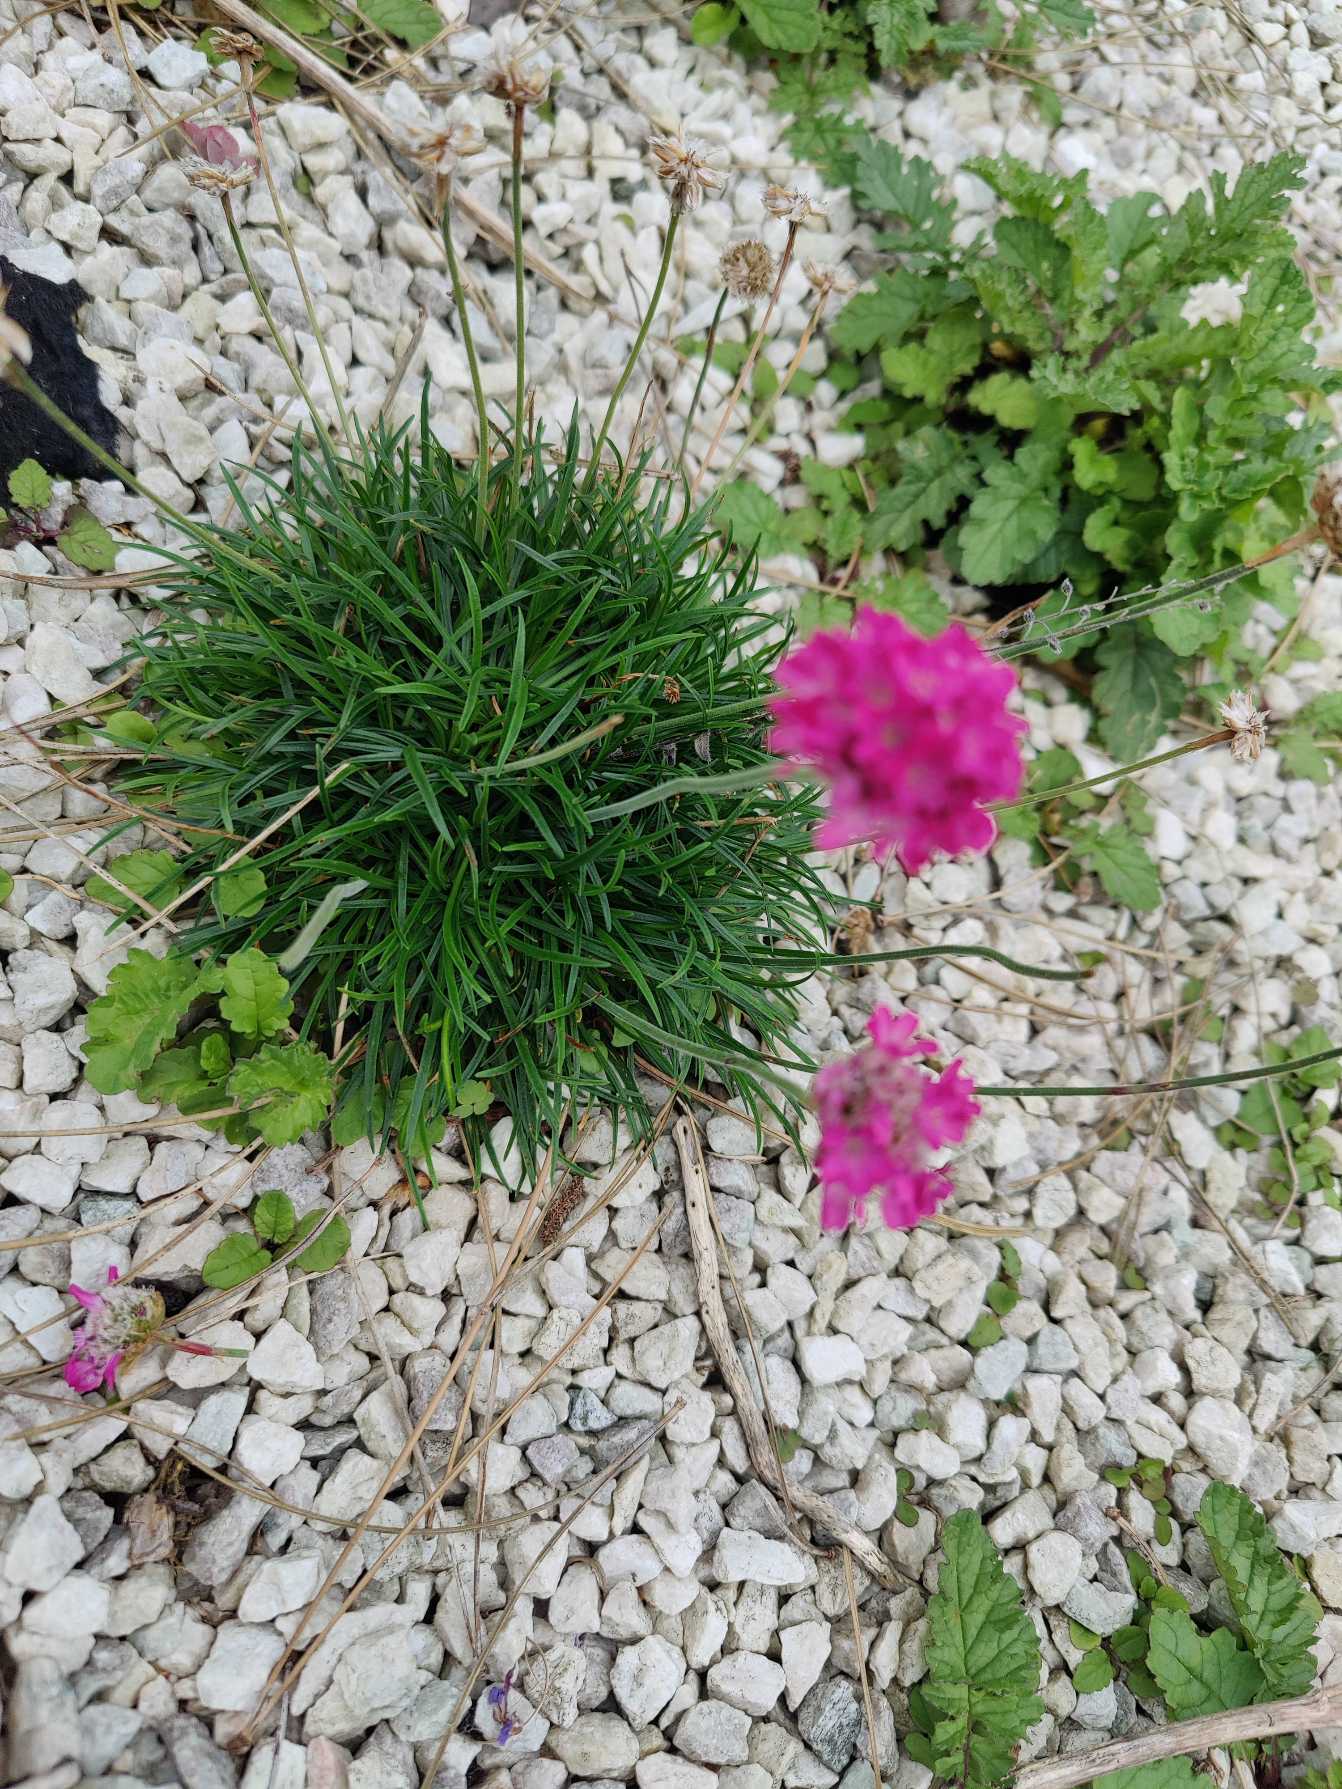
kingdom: Plantae
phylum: Tracheophyta
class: Magnoliopsida
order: Caryophyllales
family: Plumbaginaceae
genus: Armeria
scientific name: Armeria maritima
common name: Engelskgræs
